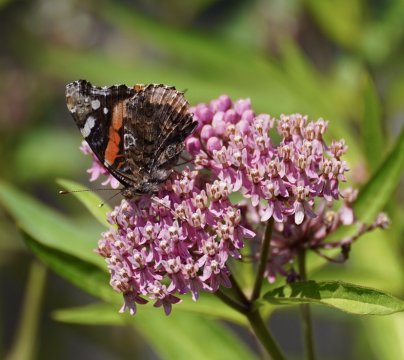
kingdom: Animalia
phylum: Arthropoda
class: Insecta
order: Lepidoptera
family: Nymphalidae
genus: Vanessa
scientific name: Vanessa atalanta
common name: Red Admiral
